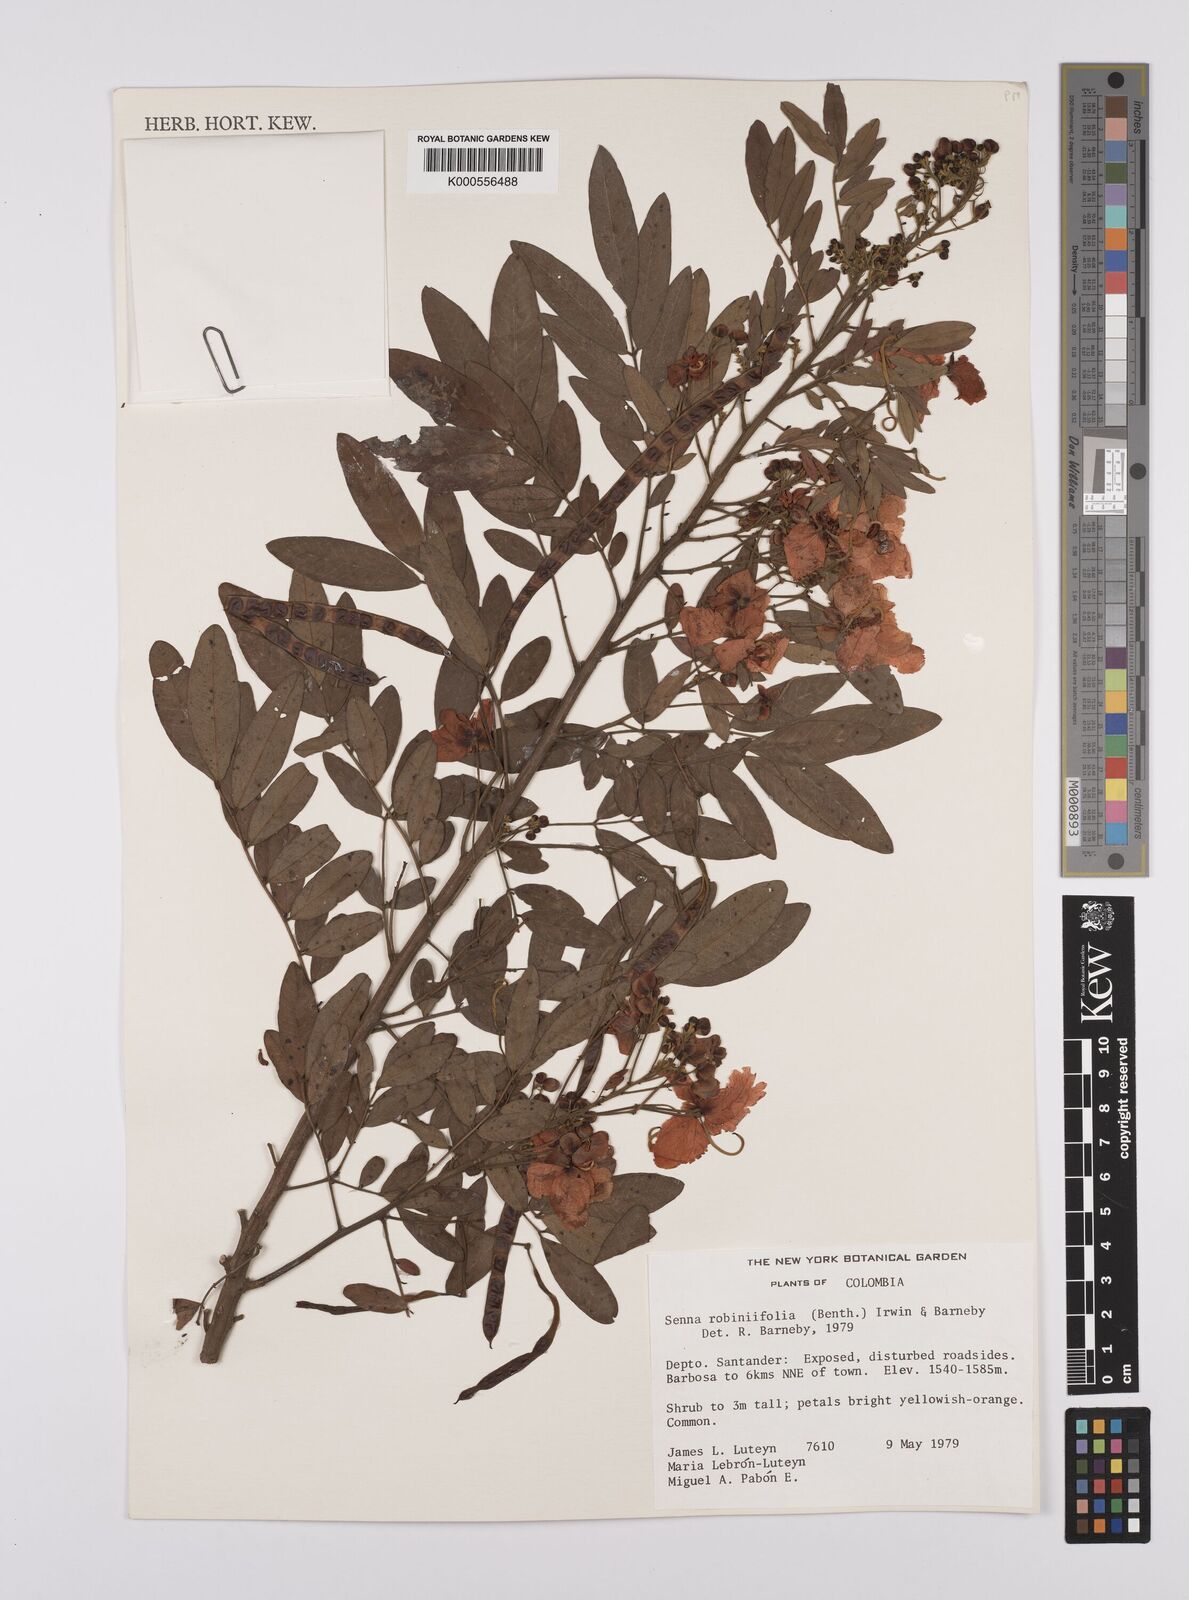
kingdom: Plantae
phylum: Tracheophyta
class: Magnoliopsida
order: Fabales
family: Fabaceae
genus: Senna
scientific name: Senna robiniifolia
